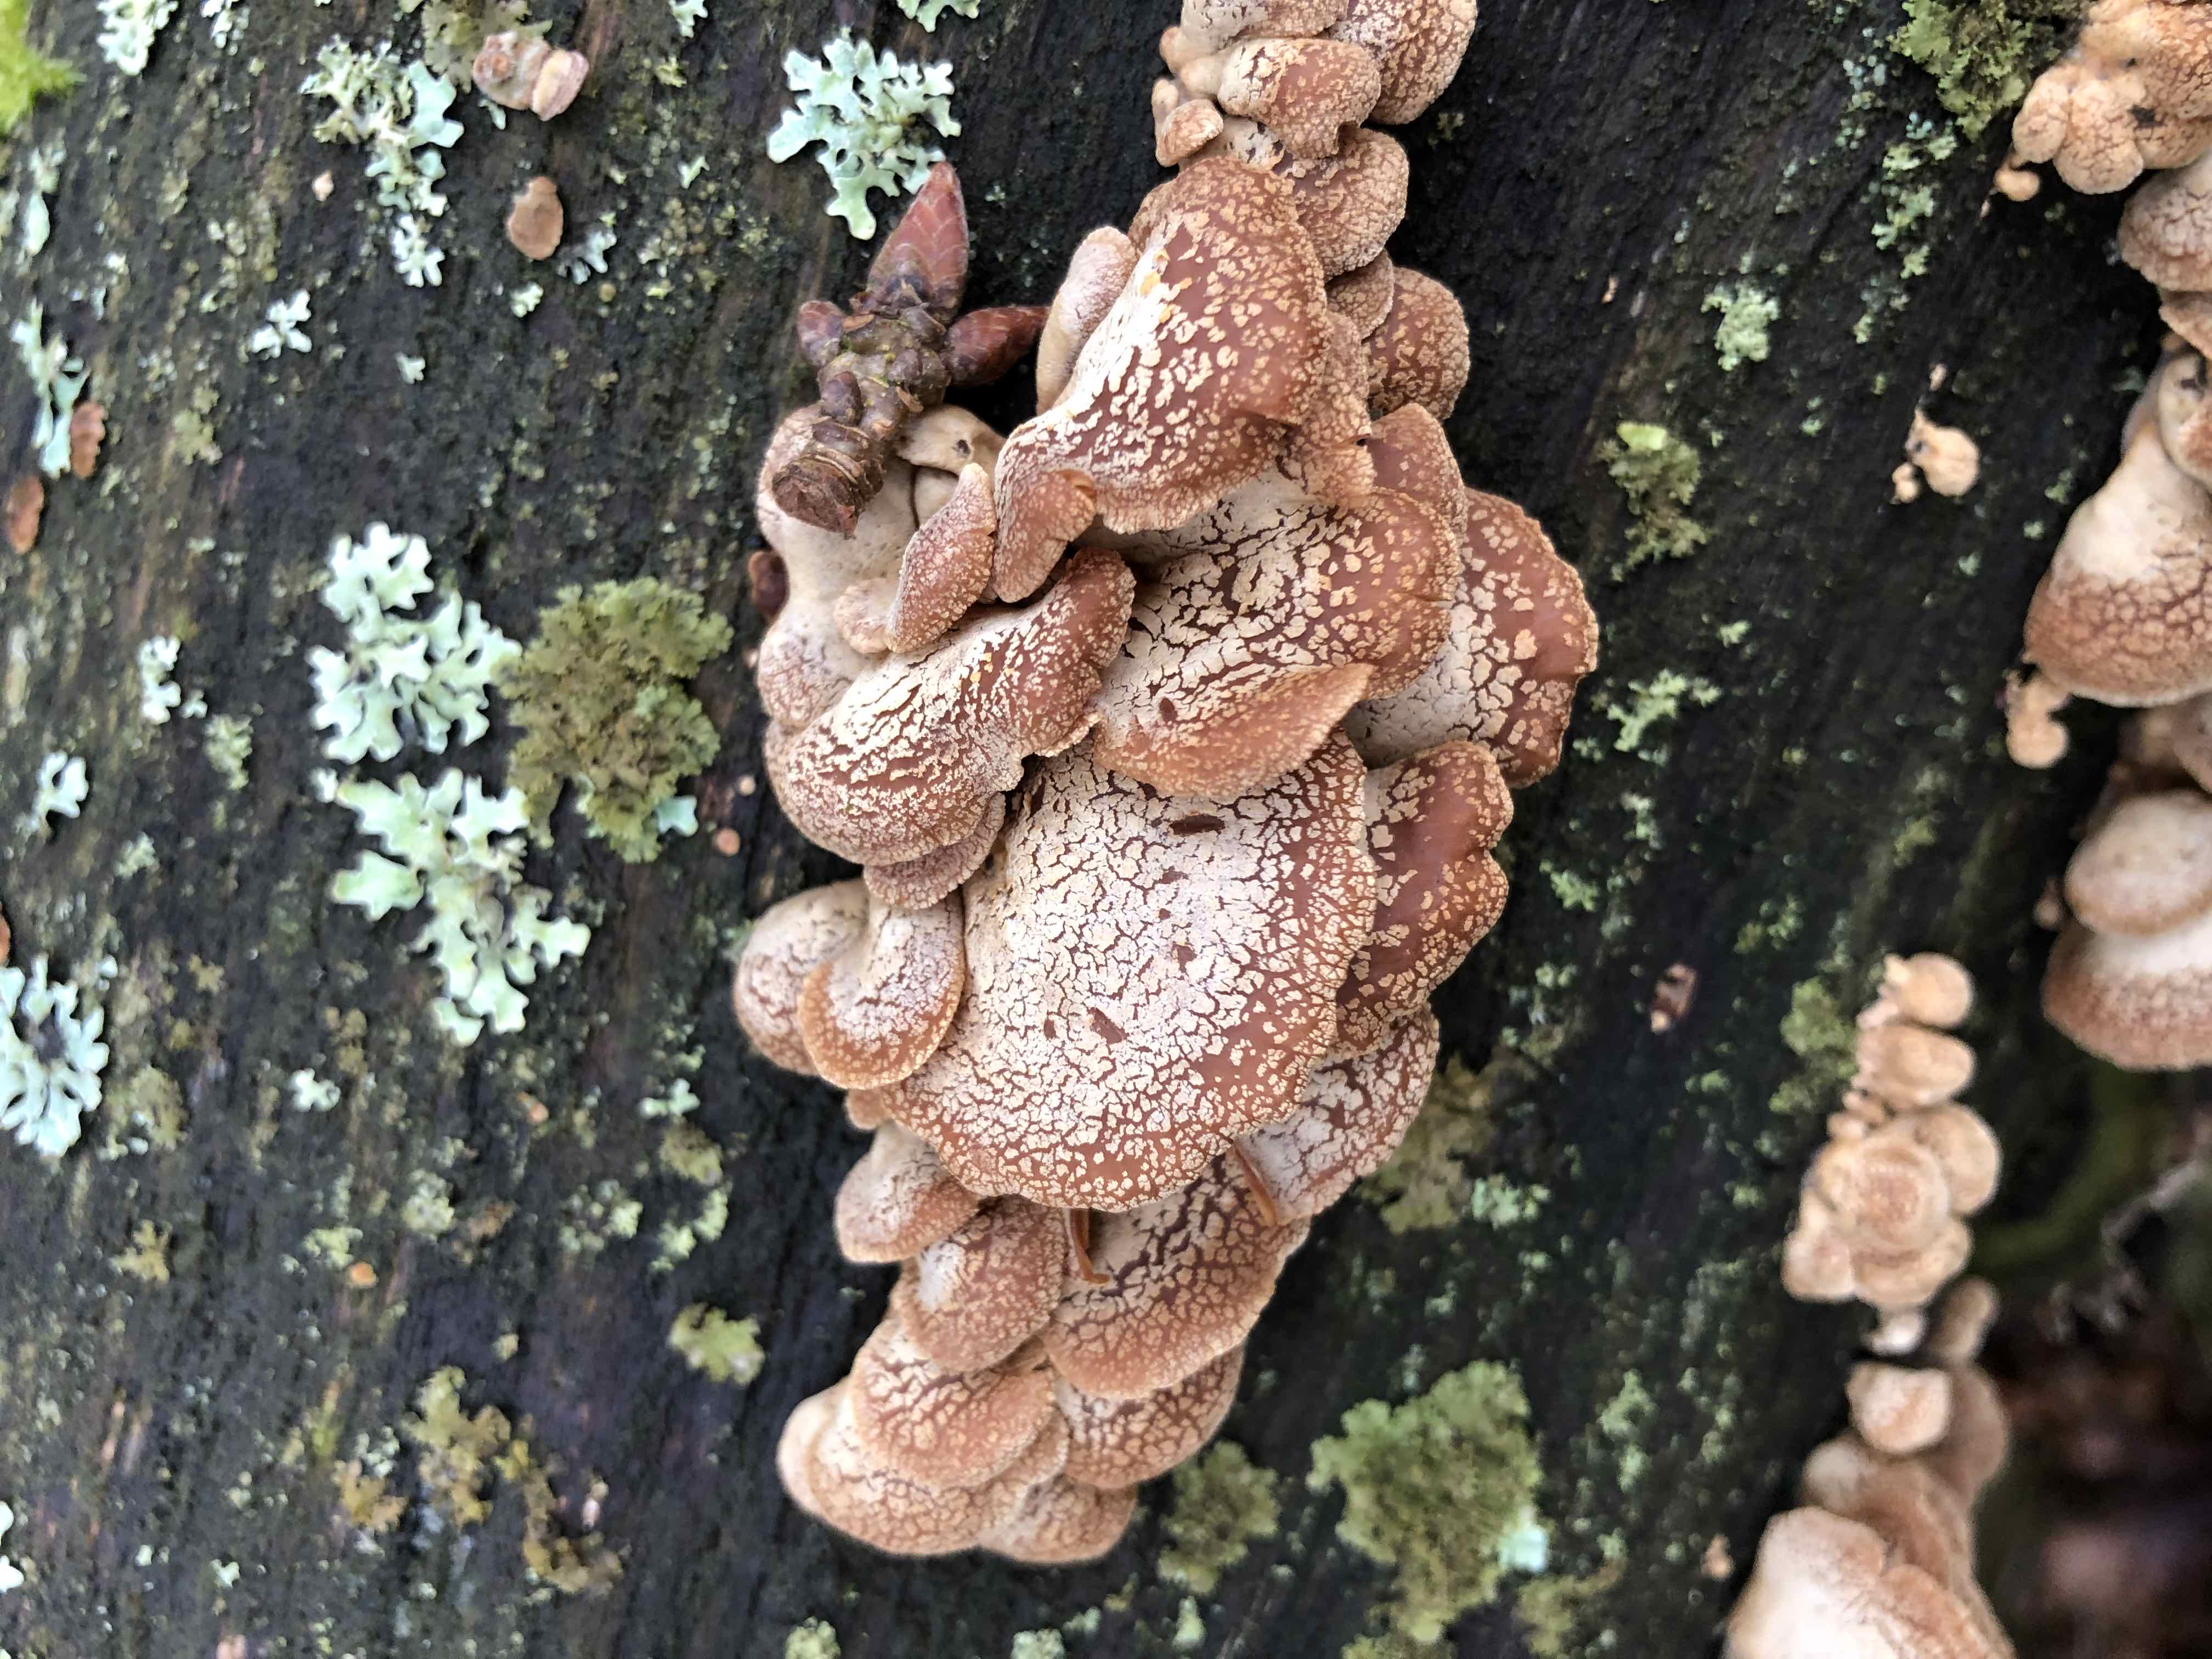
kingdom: Fungi
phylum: Basidiomycota
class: Agaricomycetes
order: Agaricales
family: Mycenaceae
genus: Panellus
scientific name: Panellus stipticus
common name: kliddet epaulethat
